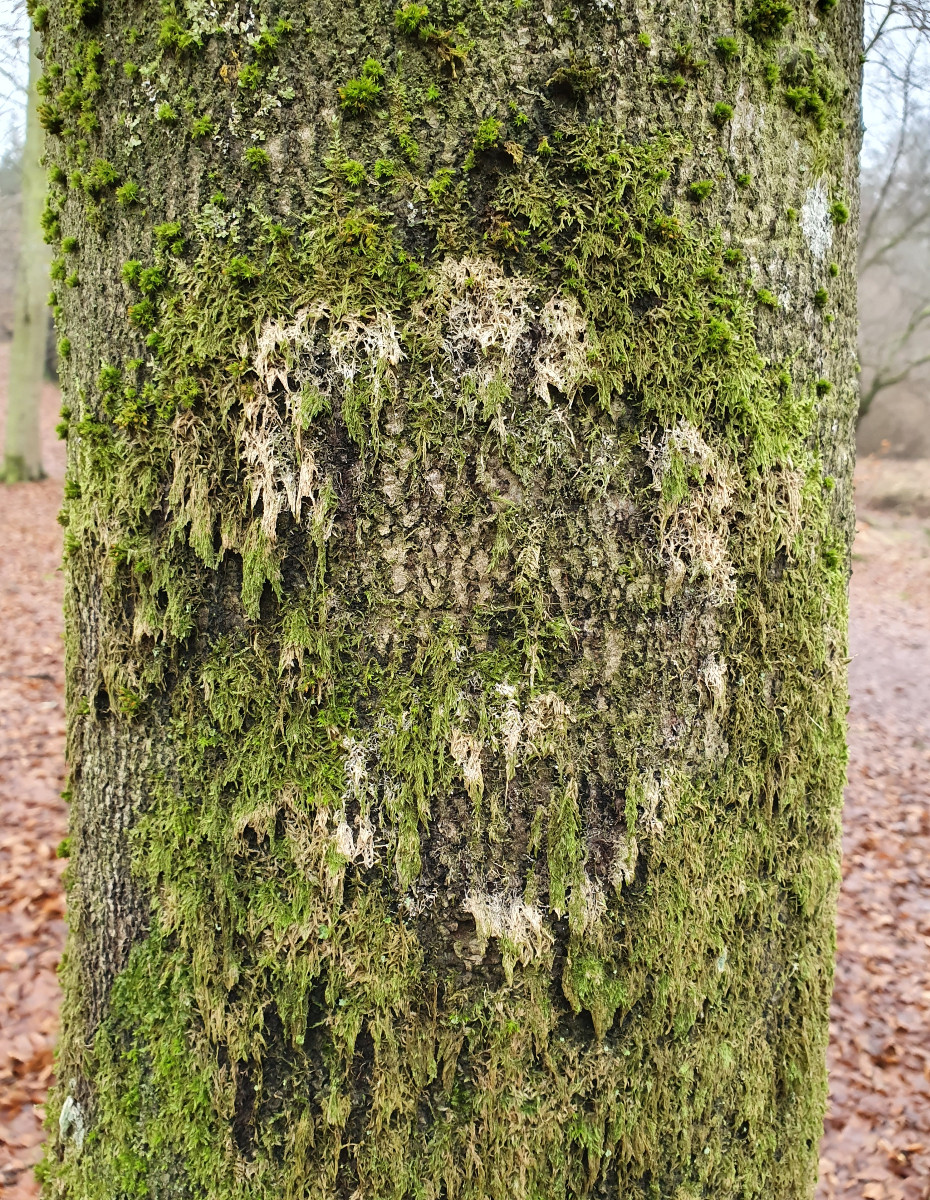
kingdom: Fungi
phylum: Basidiomycota
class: Agaricomycetes
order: Agaricales
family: Chromocyphellaceae
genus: Chromocyphella
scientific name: Chromocyphella muscicola
